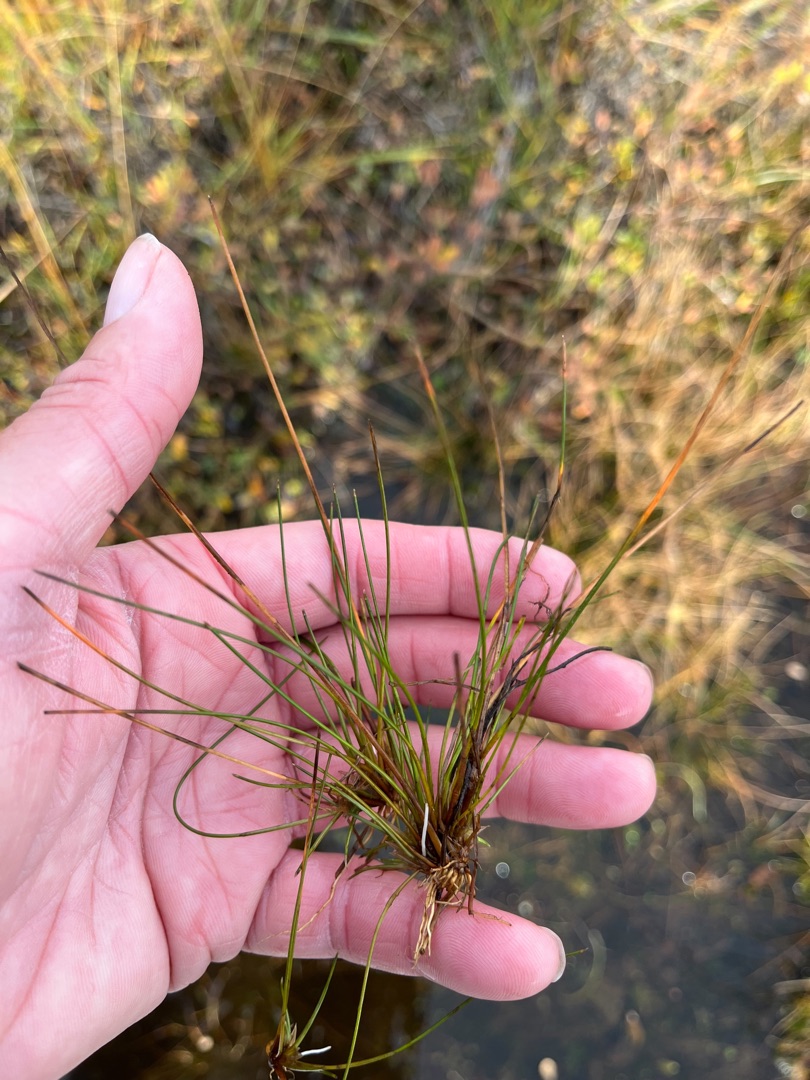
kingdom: Plantae
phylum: Tracheophyta
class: Liliopsida
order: Poales
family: Cyperaceae
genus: Eleocharis
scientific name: Eleocharis multicaulis
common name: Mangestænglet sumpstrå
